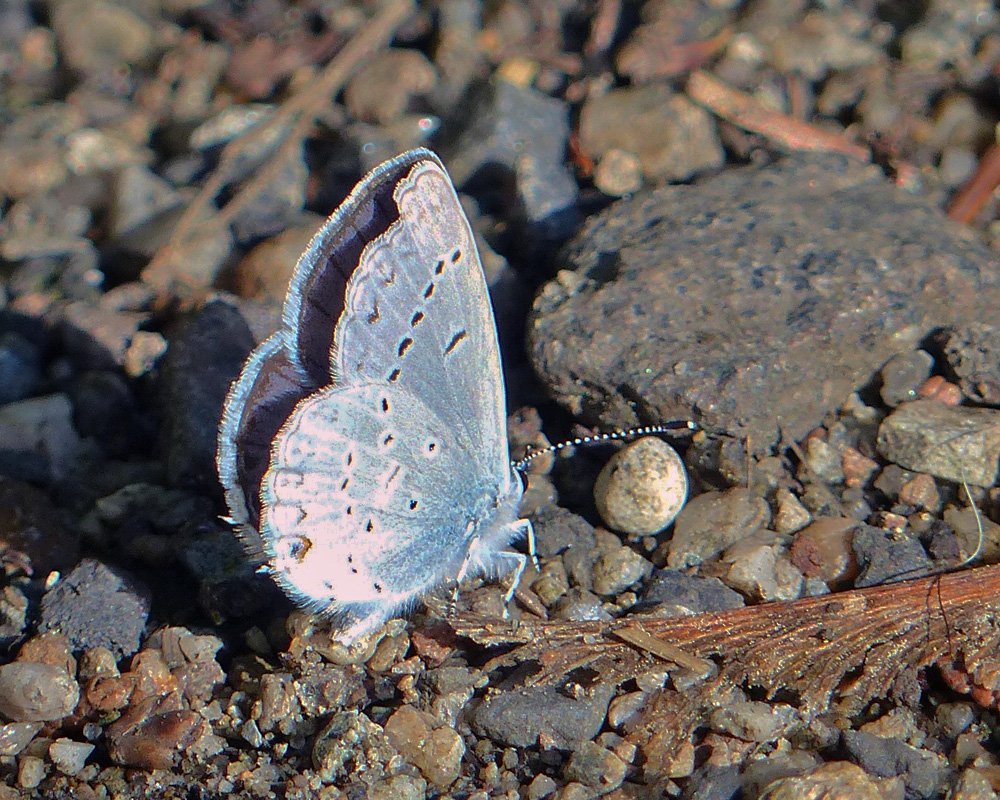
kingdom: Animalia
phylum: Arthropoda
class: Insecta
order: Lepidoptera
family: Lycaenidae
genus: Elkalyce
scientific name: Elkalyce amyntula
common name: Western Tailed-Blue
